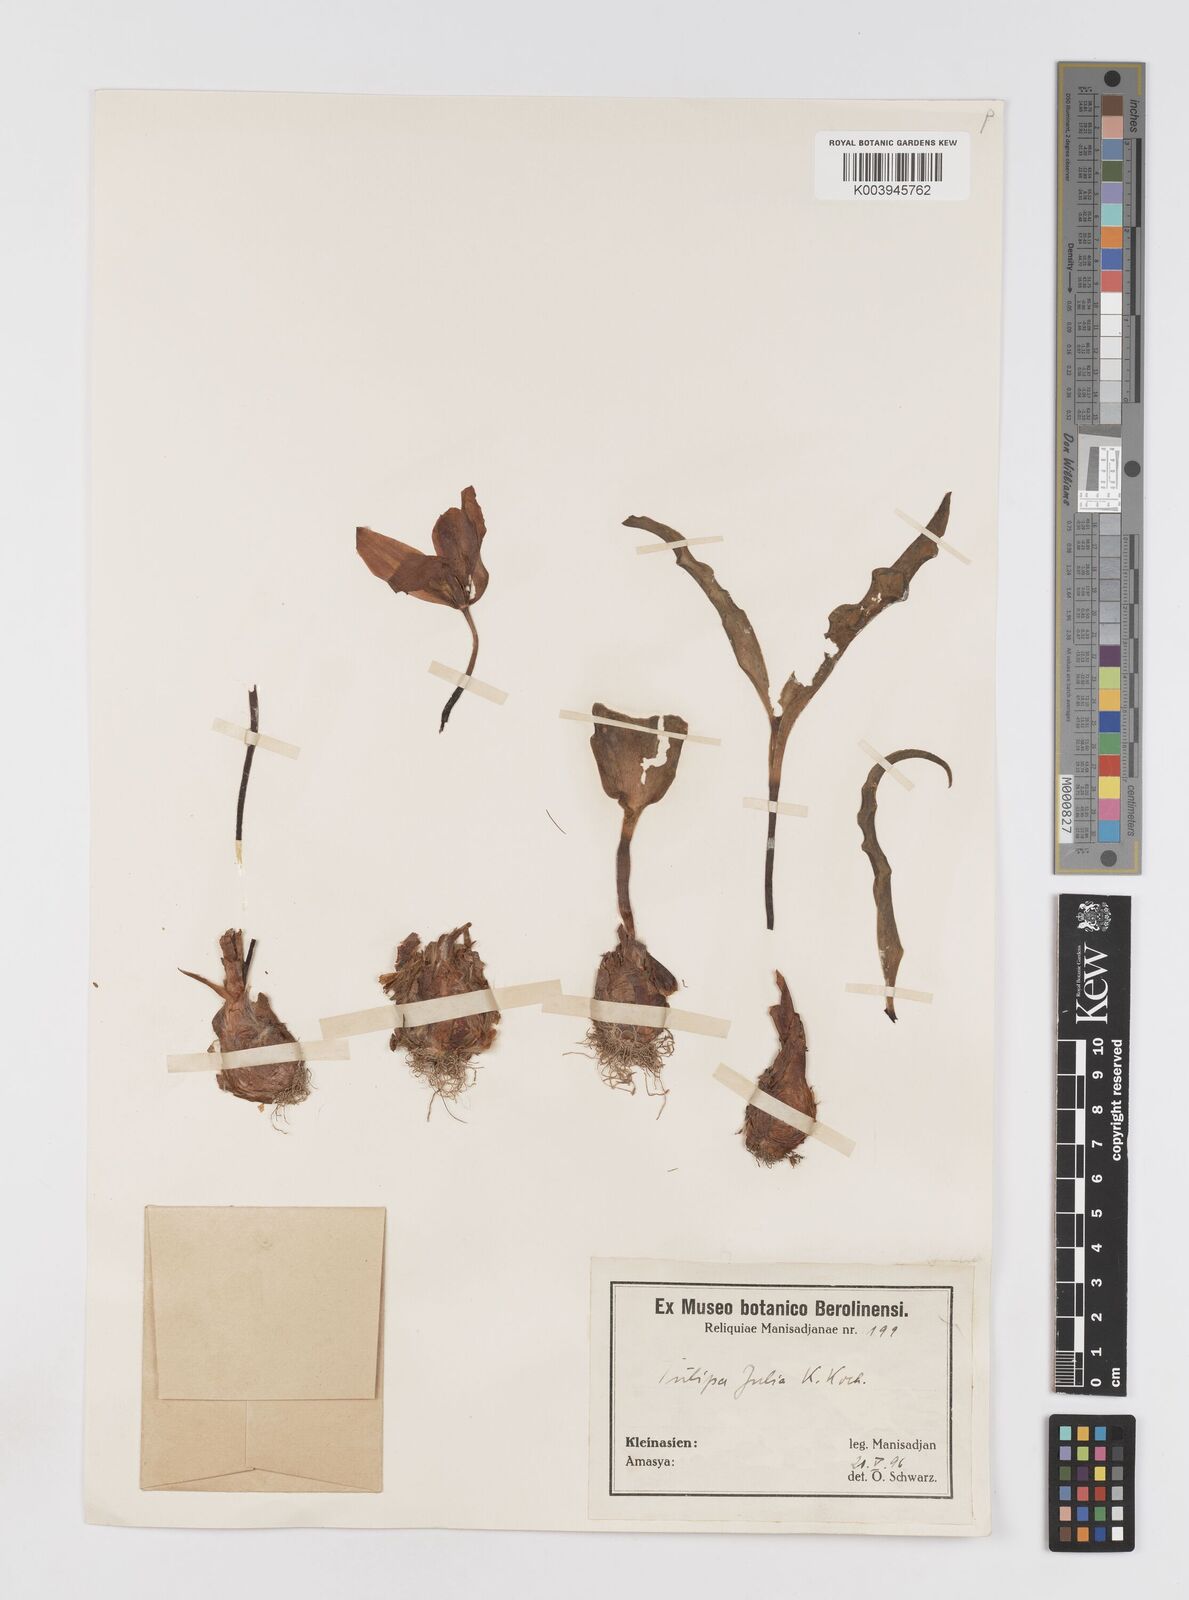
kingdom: Plantae
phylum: Tracheophyta
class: Liliopsida
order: Liliales
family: Liliaceae
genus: Tulipa
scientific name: Tulipa foliosa
